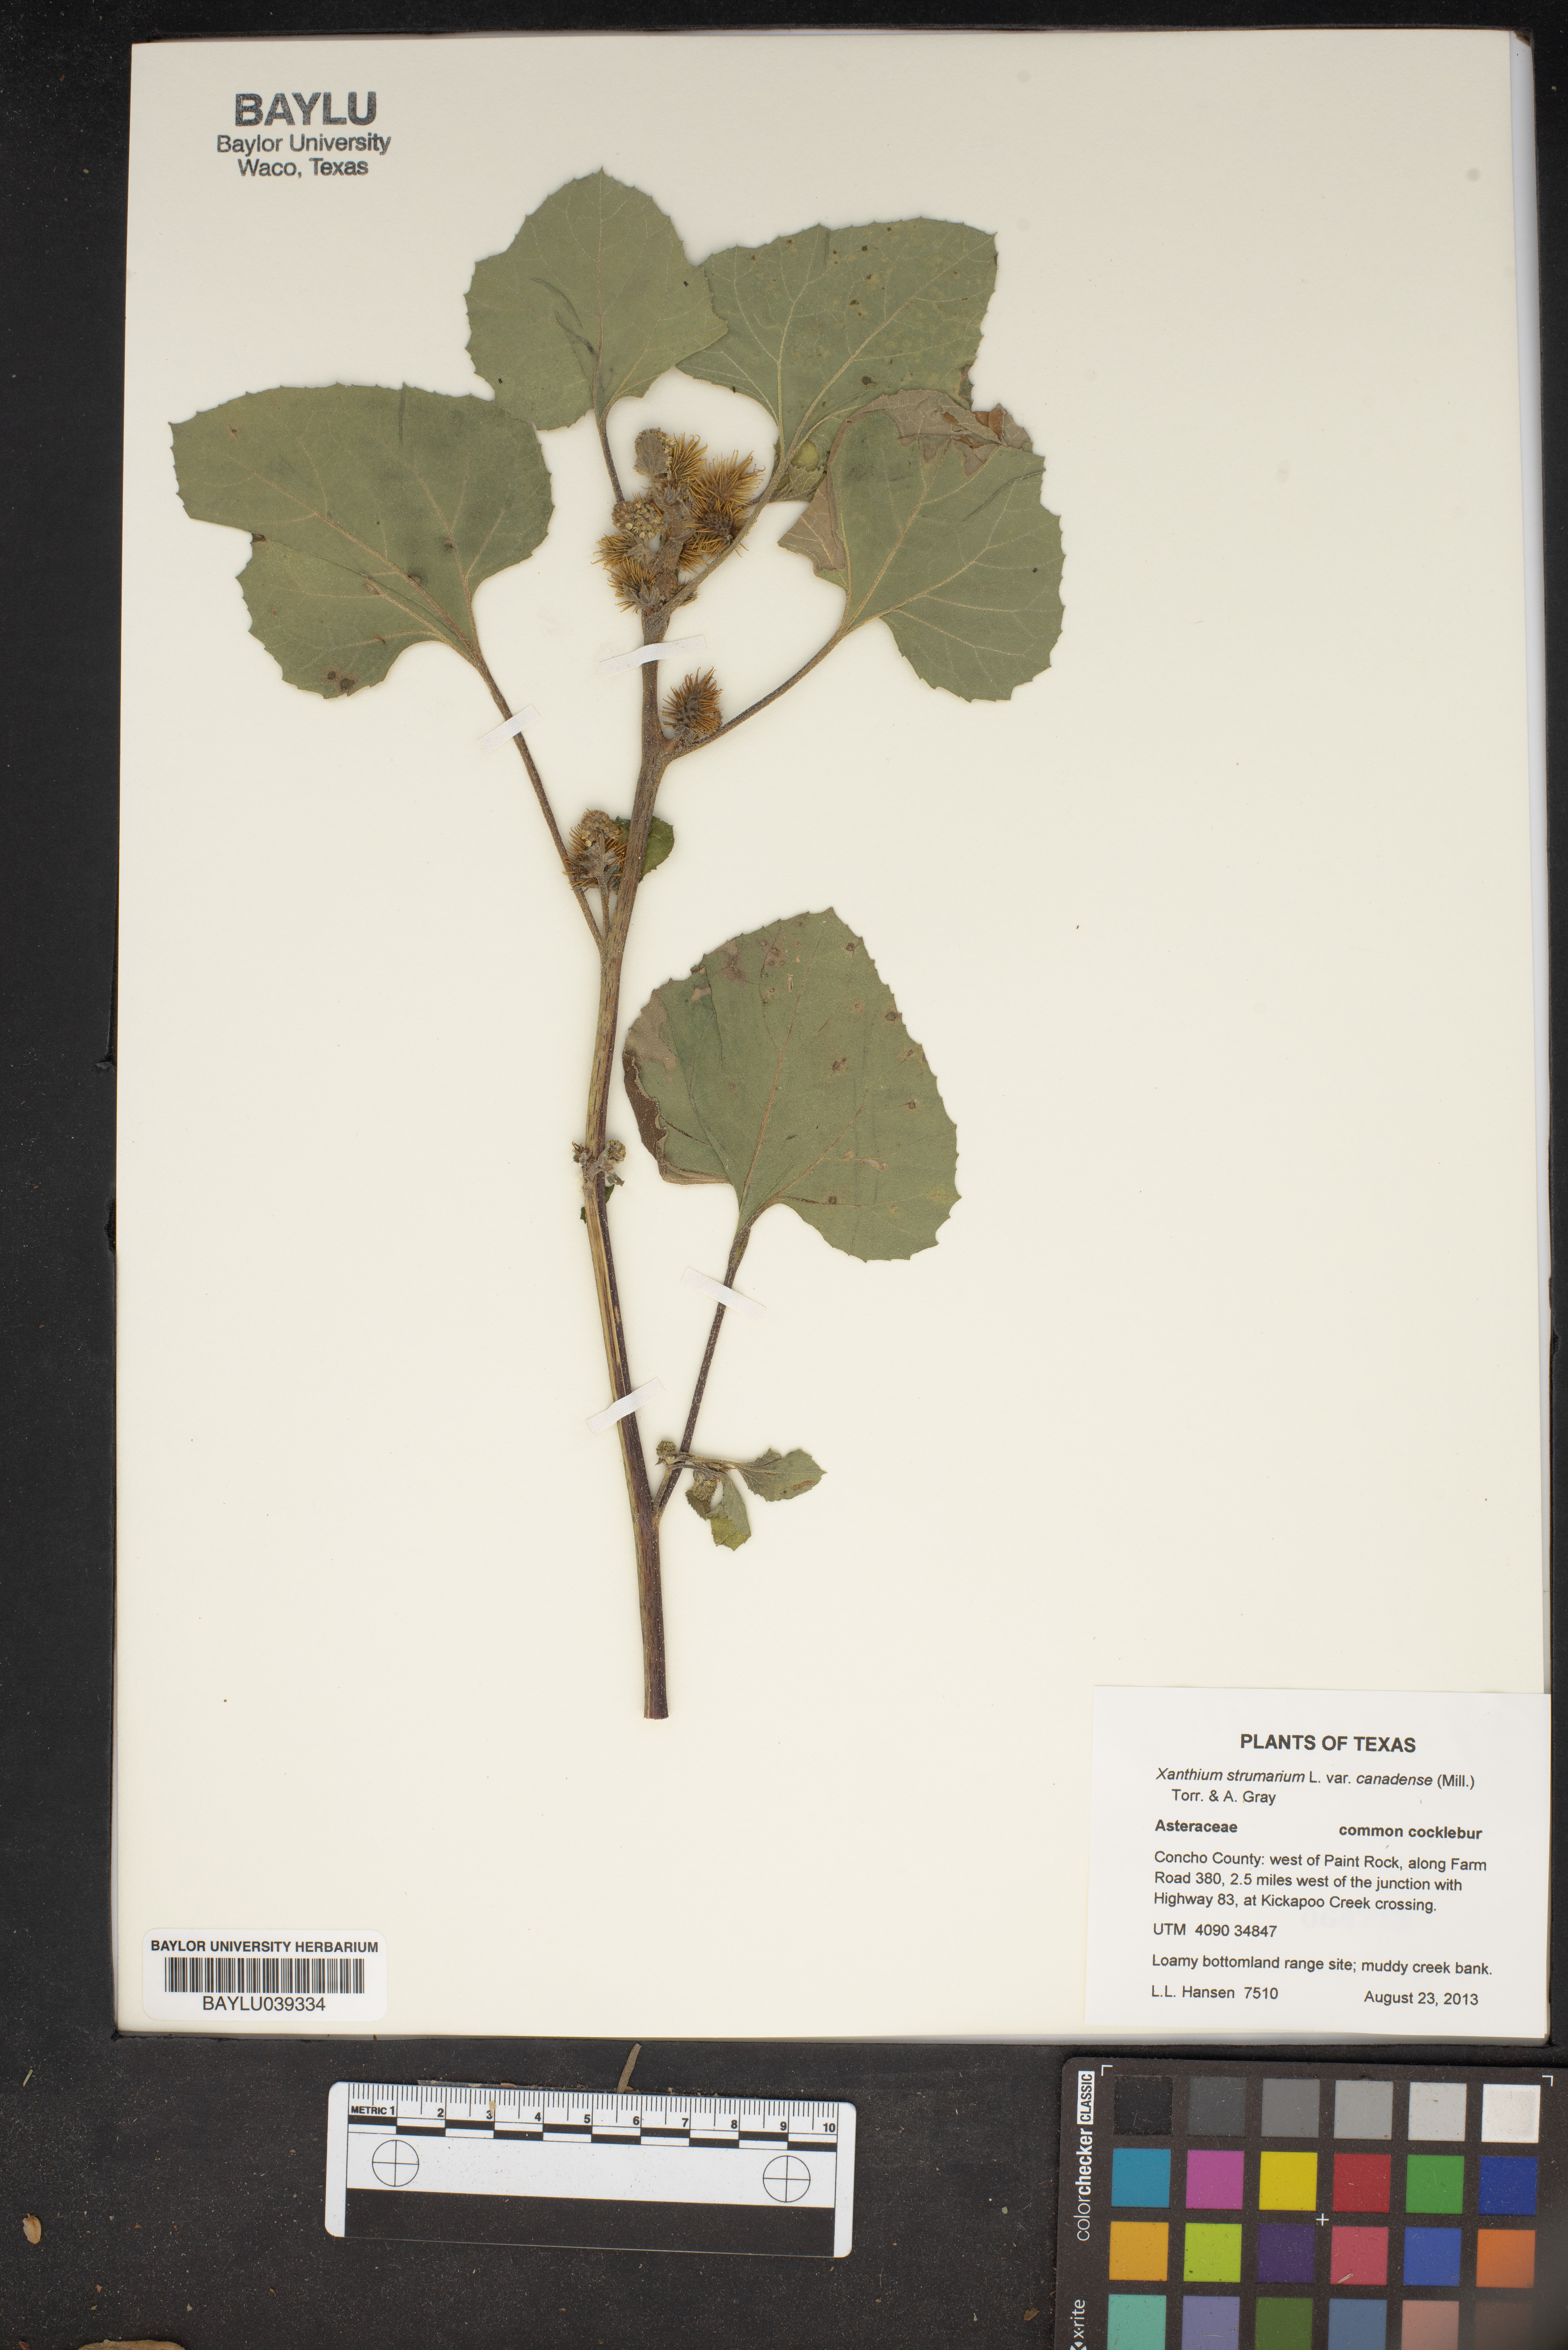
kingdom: Plantae
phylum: Tracheophyta
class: Magnoliopsida
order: Asterales
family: Asteraceae
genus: Xanthium
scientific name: Xanthium orientale
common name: Californian burr
